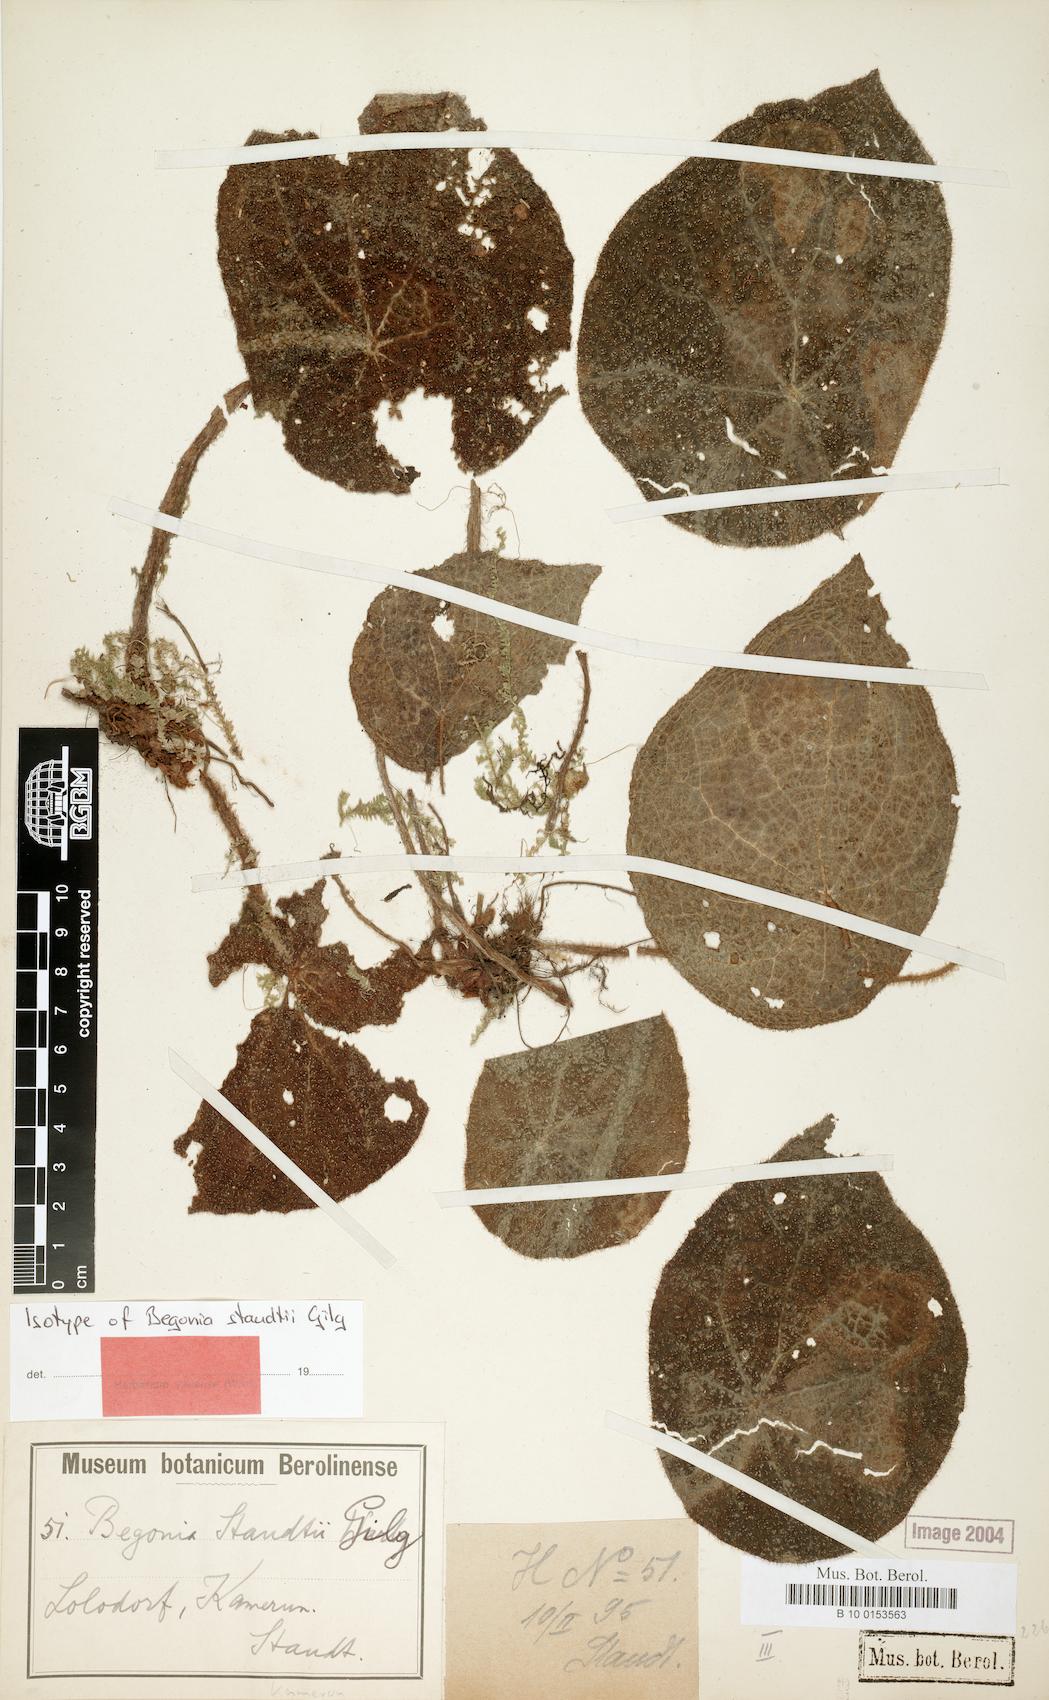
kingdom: Plantae
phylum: Tracheophyta
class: Magnoliopsida
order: Cucurbitales
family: Begoniaceae
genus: Begonia
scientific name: Begonia staudtii
